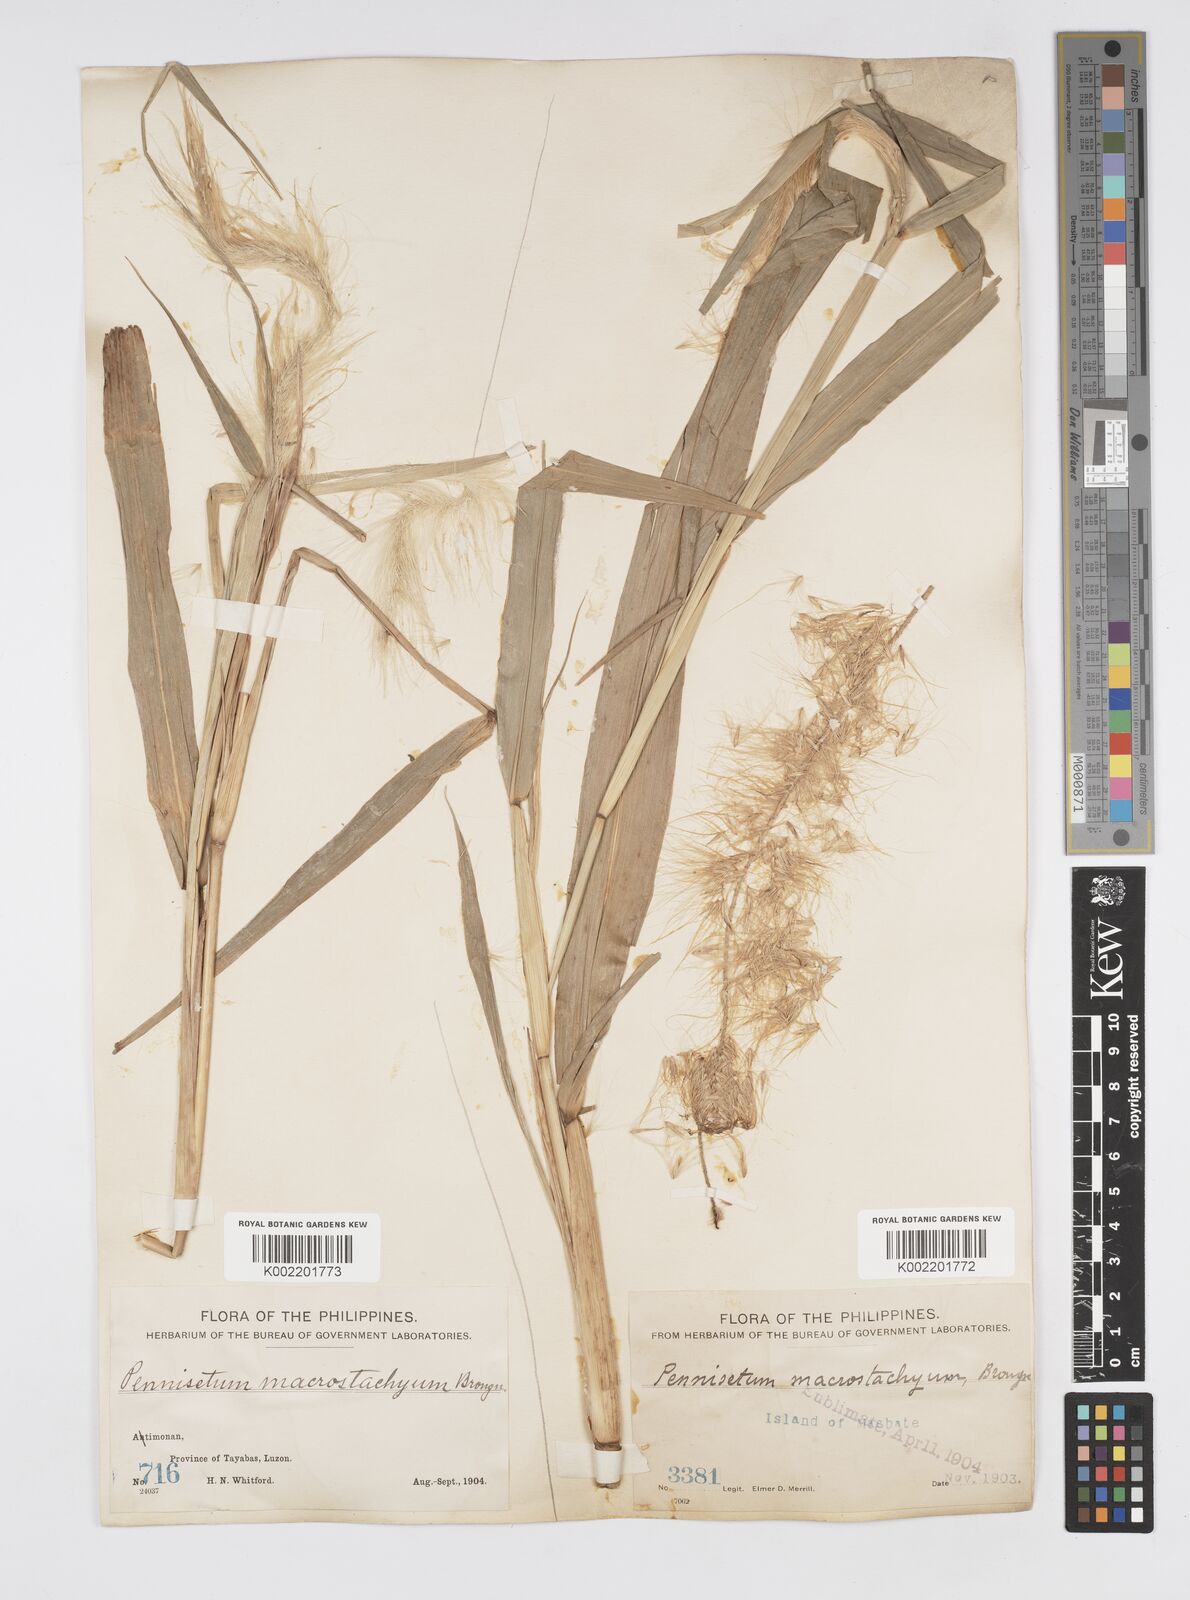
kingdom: Plantae
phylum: Tracheophyta
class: Liliopsida
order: Poales
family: Poaceae
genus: Cenchrus
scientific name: Cenchrus purpureus
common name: Elephant grass
